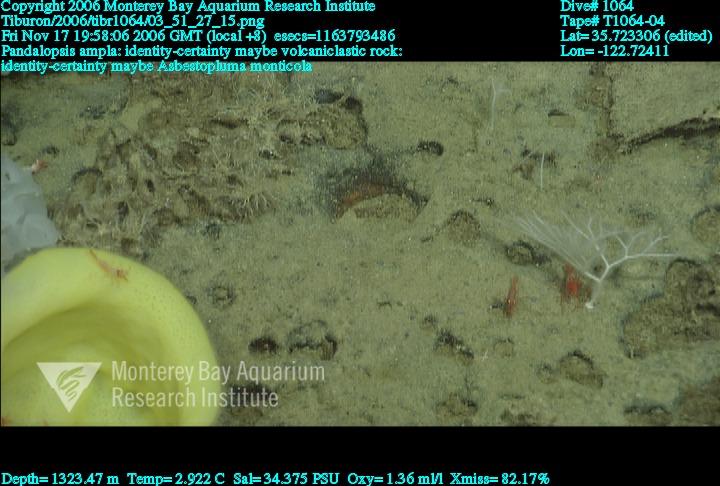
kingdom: Animalia
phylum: Porifera
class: Demospongiae
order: Poecilosclerida
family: Cladorhizidae
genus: Asbestopluma
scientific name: Asbestopluma monticola
